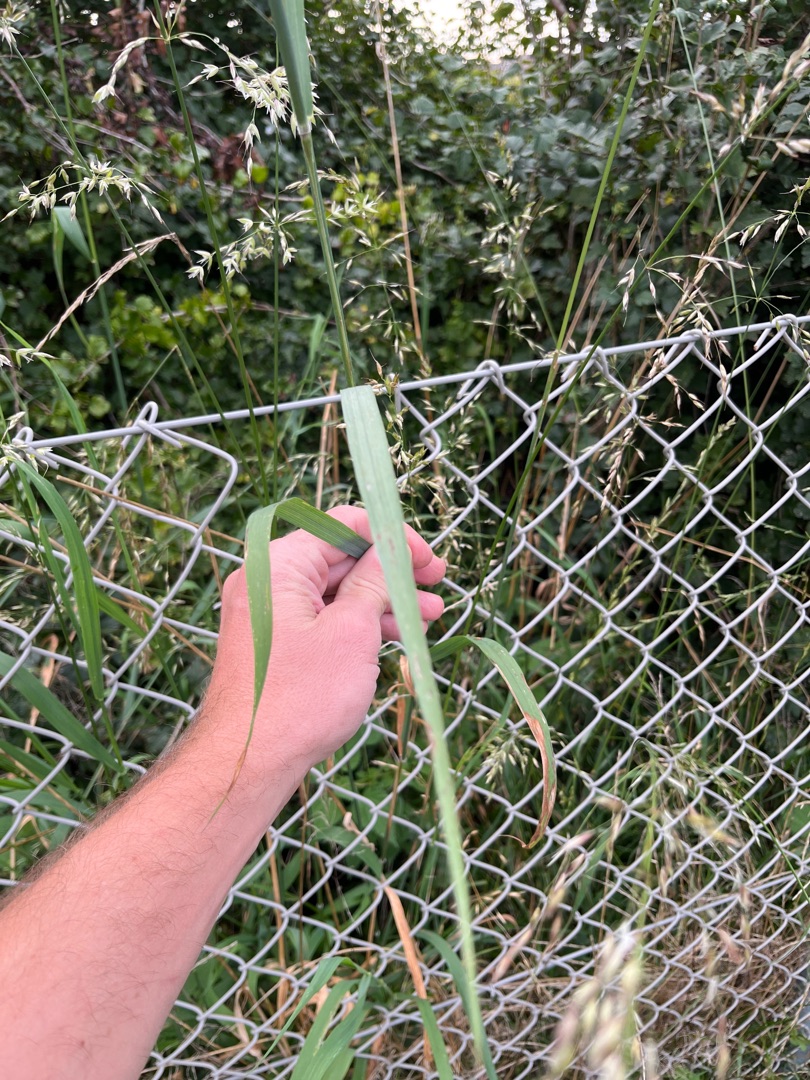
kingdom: Plantae
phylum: Tracheophyta
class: Liliopsida
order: Poales
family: Poaceae
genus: Arrhenatherum
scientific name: Arrhenatherum elatius
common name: Draphavre
